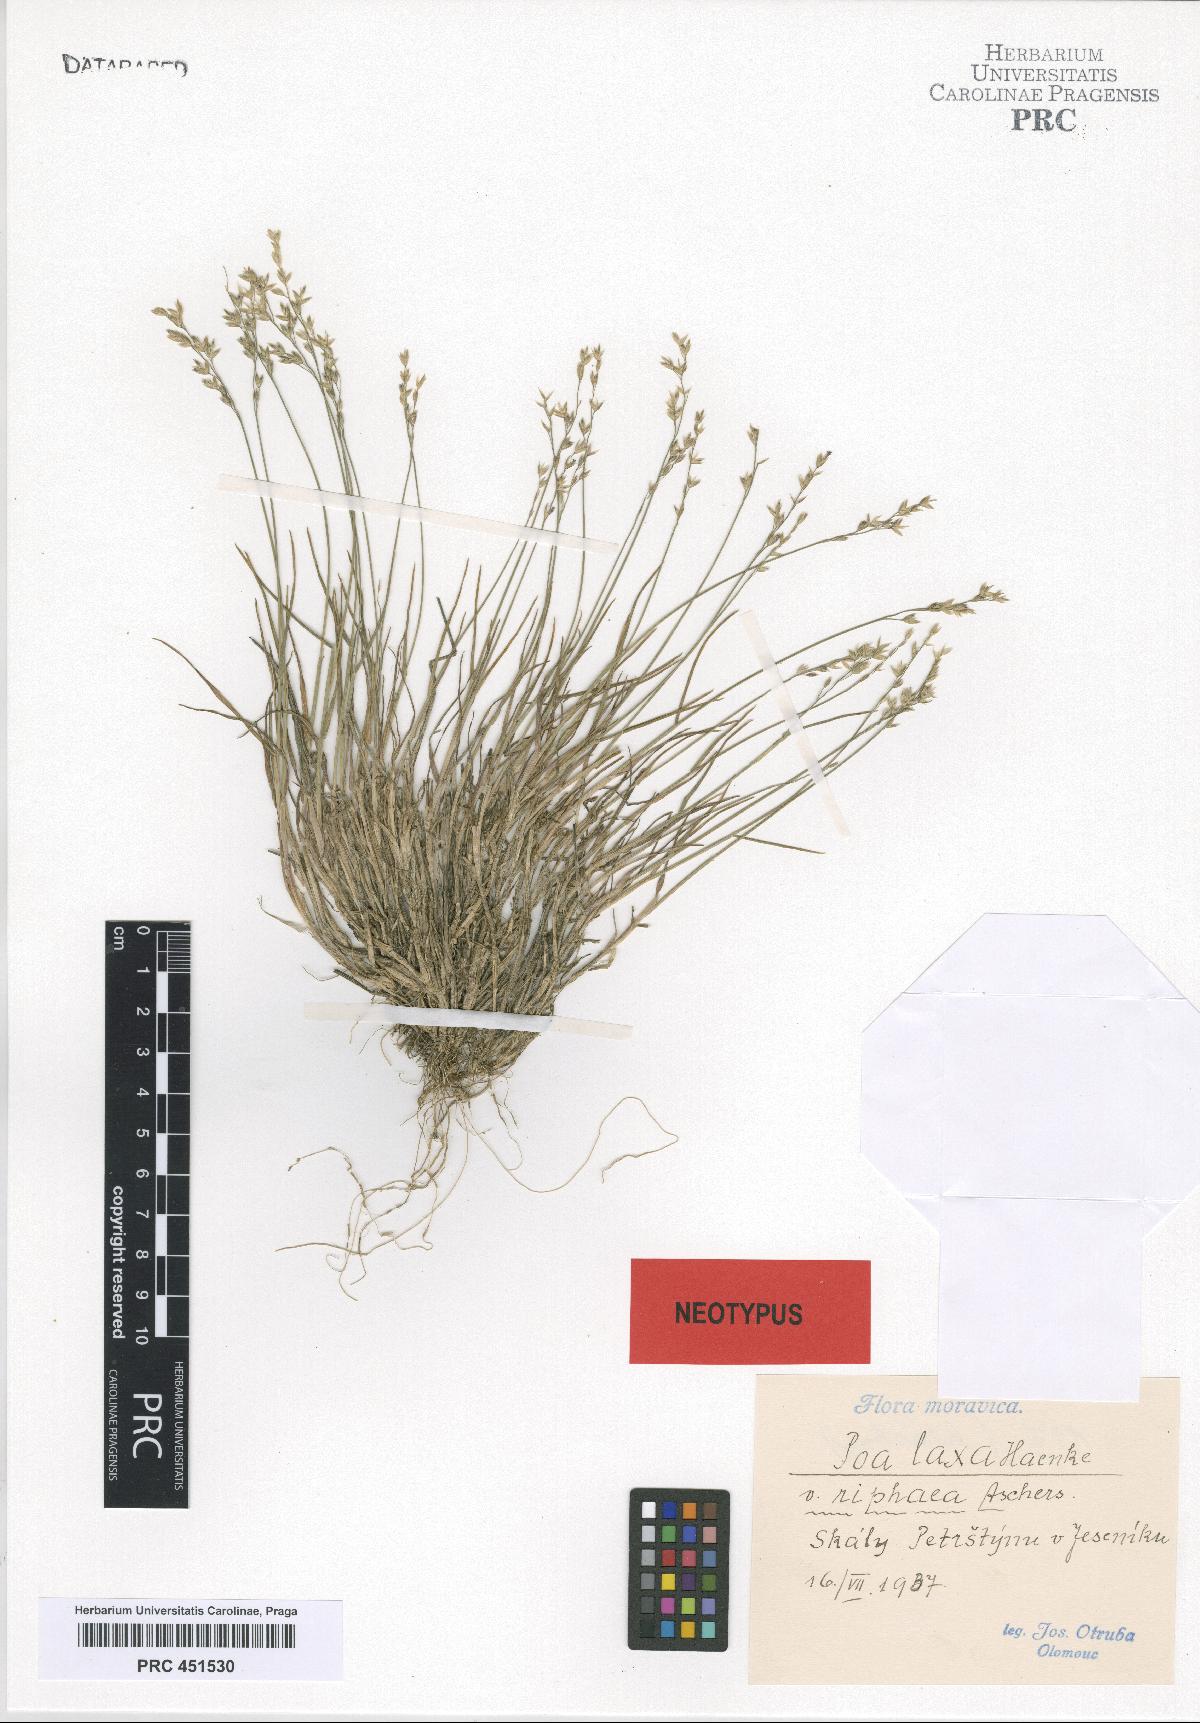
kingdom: Plantae
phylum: Tracheophyta
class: Liliopsida
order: Poales
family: Poaceae
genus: Poa
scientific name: Poa riphaea
